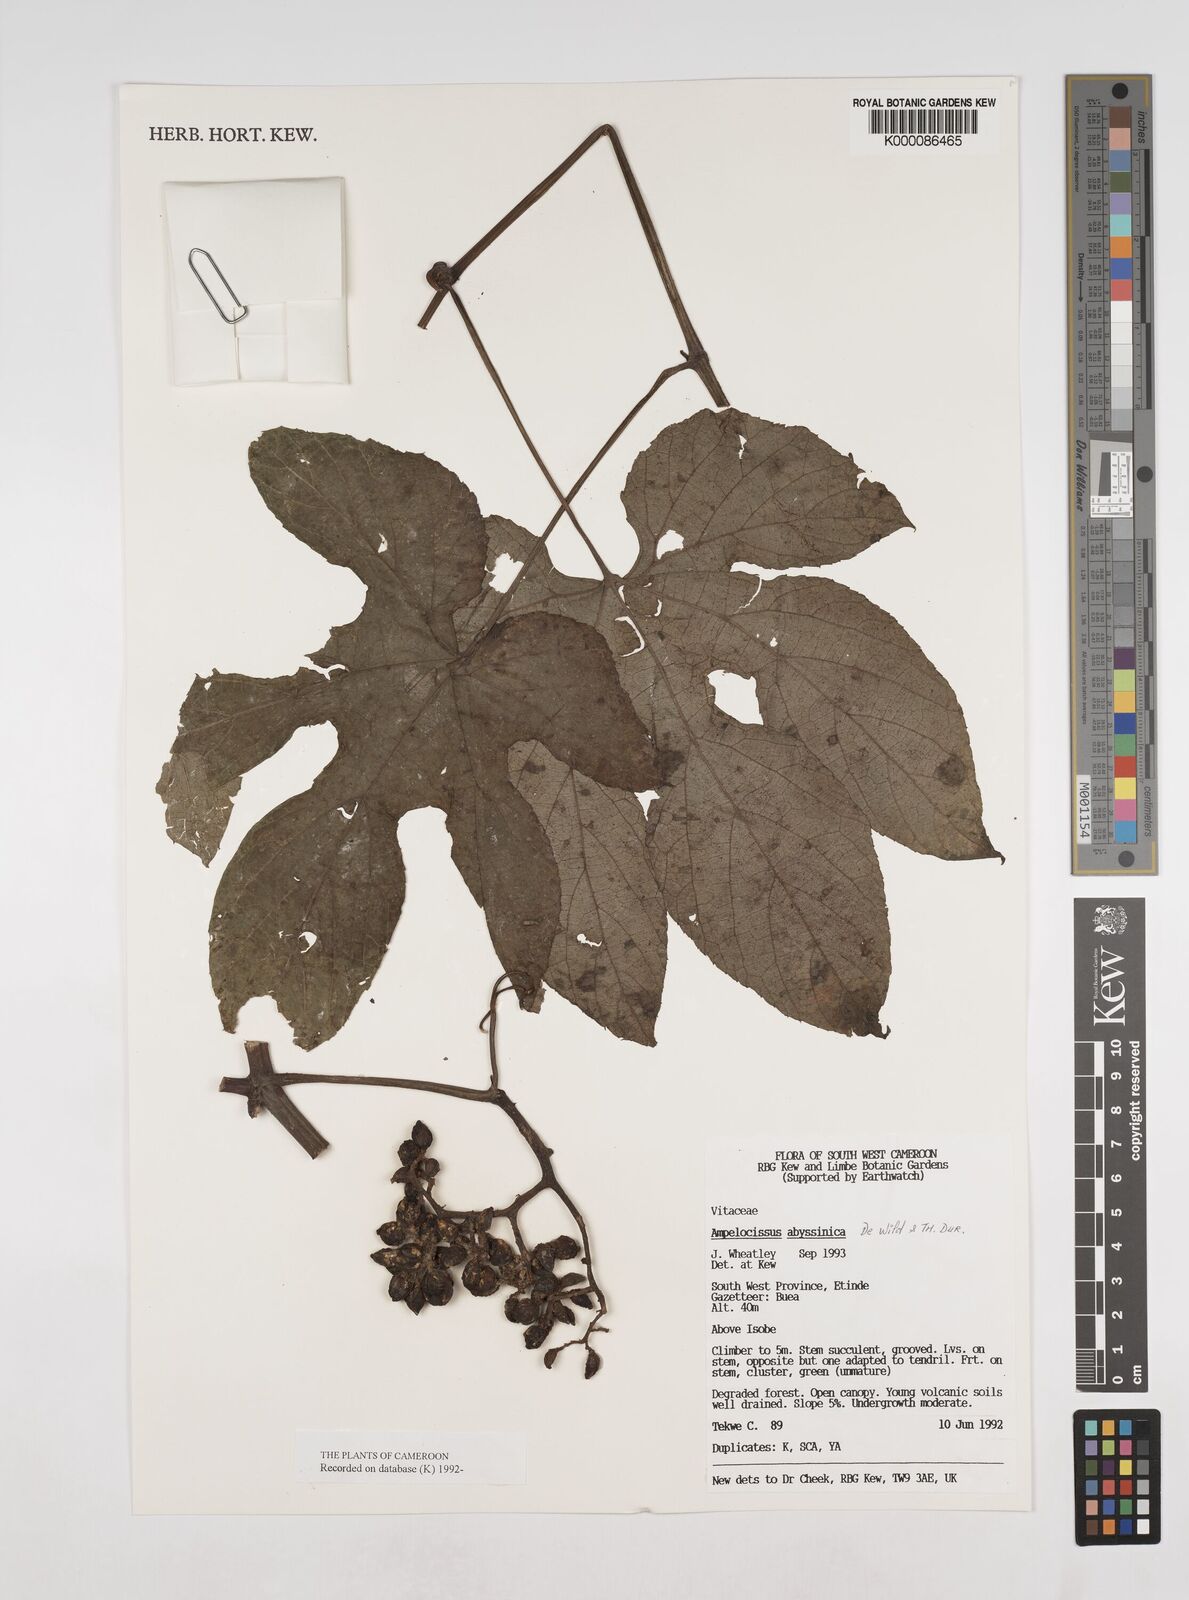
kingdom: Plantae
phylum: Tracheophyta
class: Magnoliopsida
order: Vitales
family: Vitaceae
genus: Ampelocissus
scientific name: Ampelocissus abyssinica
